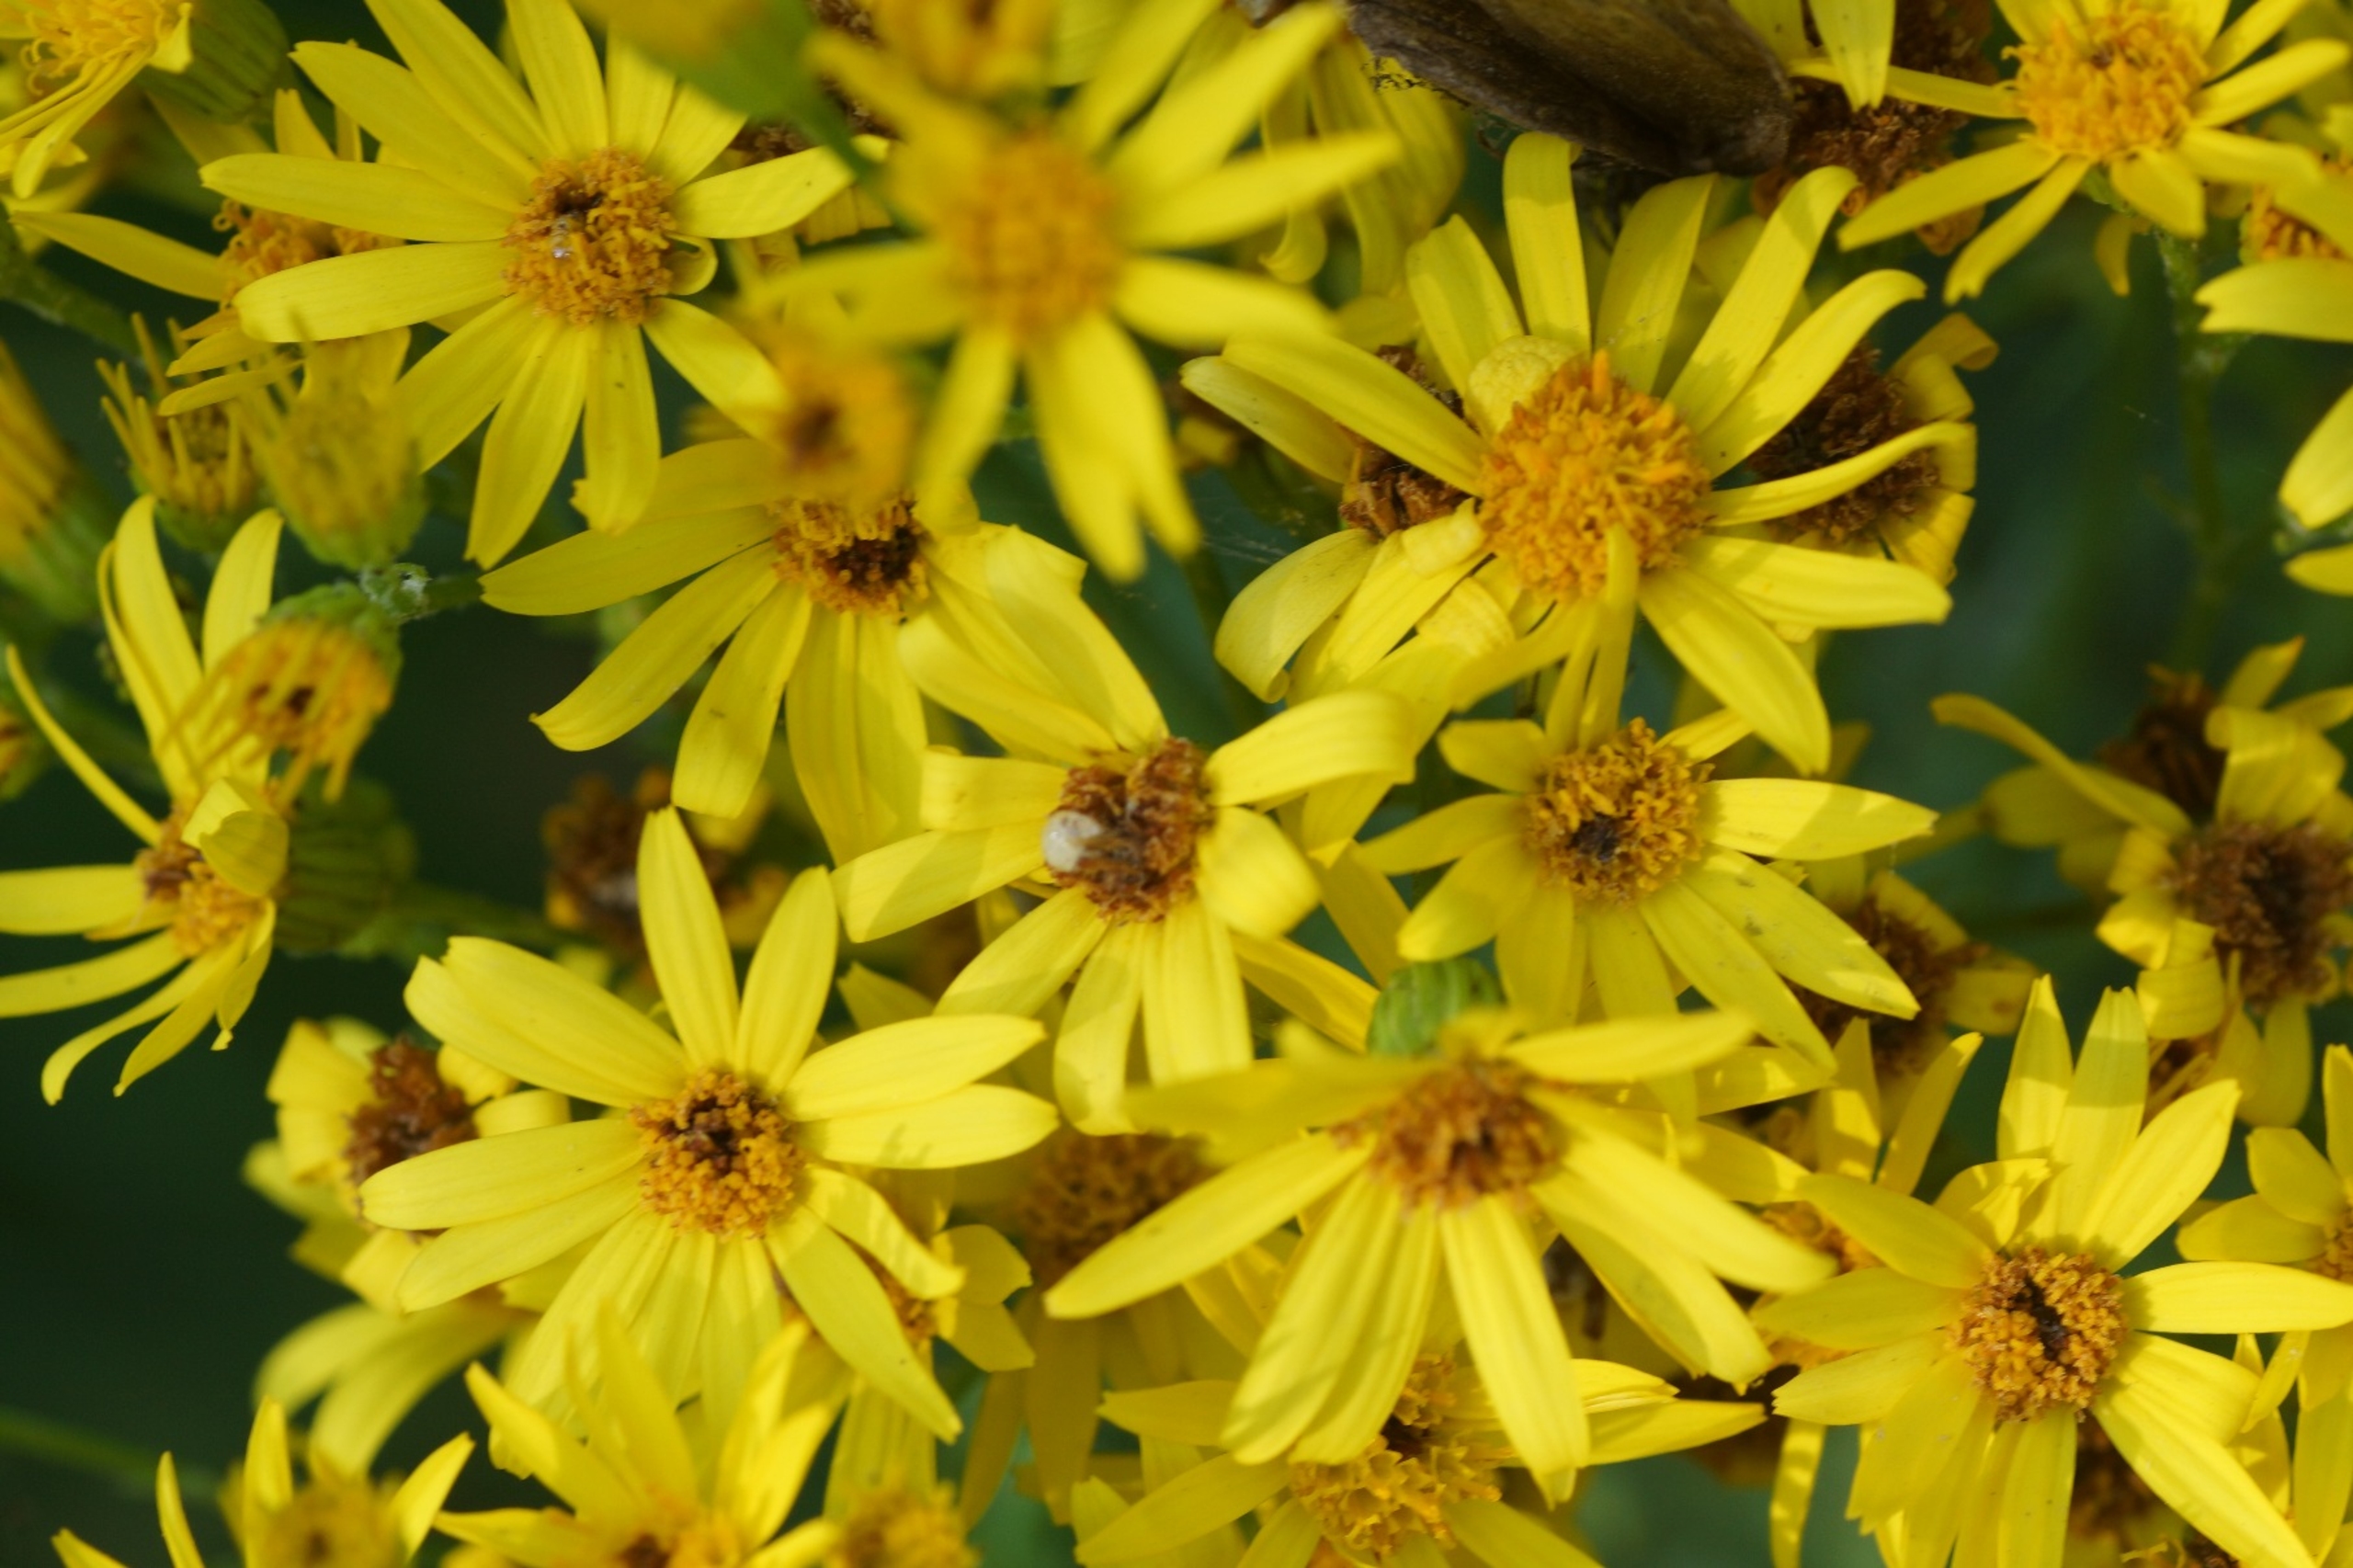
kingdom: Plantae
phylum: Tracheophyta
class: Magnoliopsida
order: Asterales
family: Asteraceae
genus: Jacobaea
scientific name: Jacobaea vulgaris
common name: Eng-brandbæger
